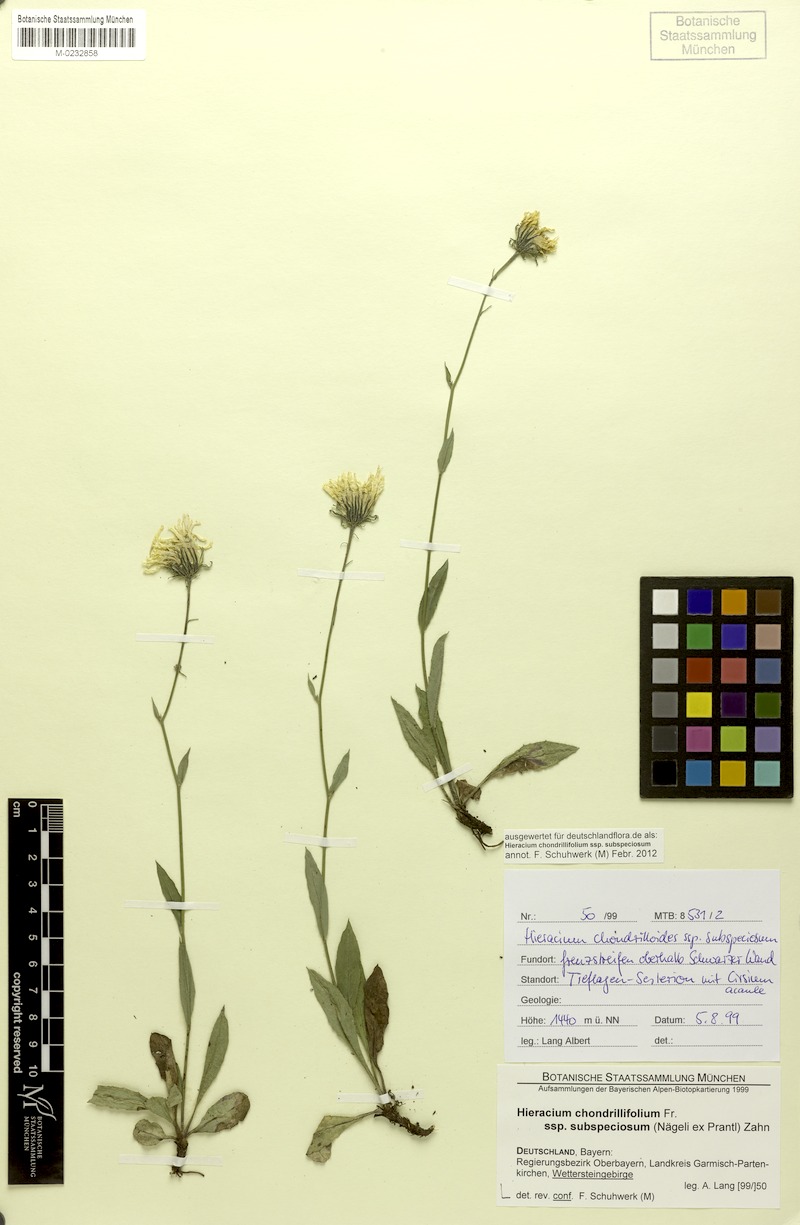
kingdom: Plantae
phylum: Tracheophyta
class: Magnoliopsida
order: Asterales
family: Asteraceae
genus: Hieracium
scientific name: Hieracium subspeciosum
